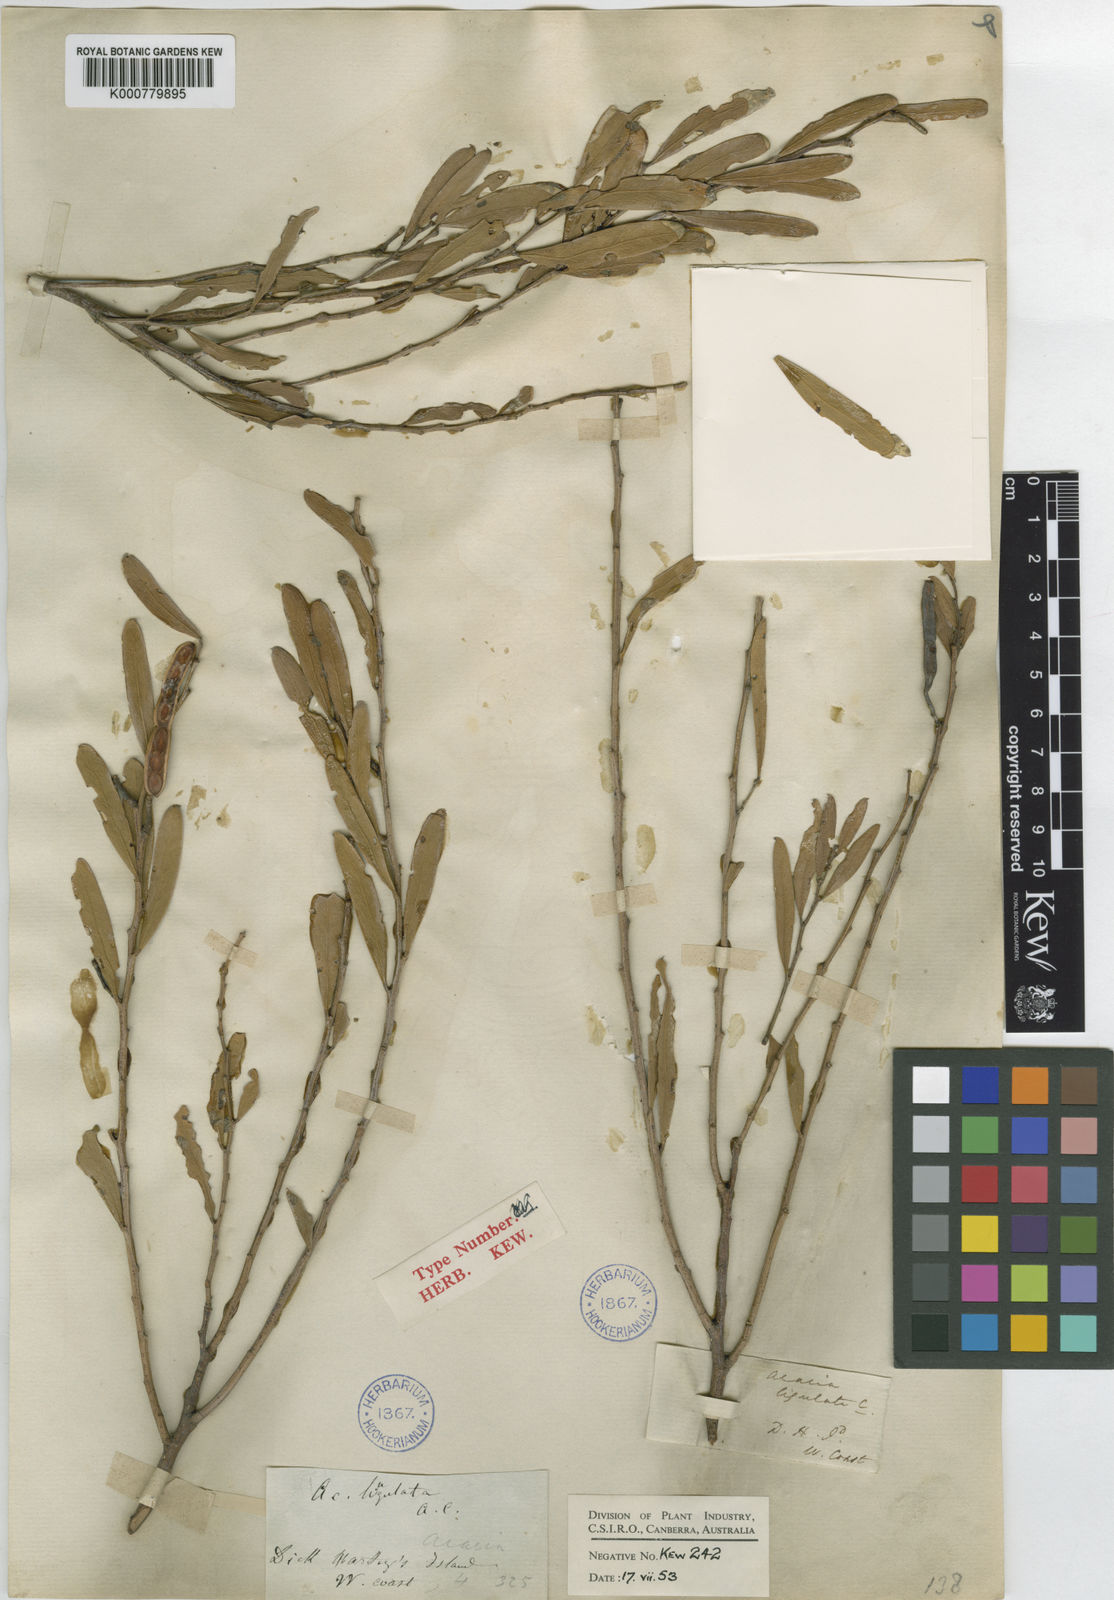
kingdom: Plantae
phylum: Tracheophyta
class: Magnoliopsida
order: Fabales
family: Fabaceae
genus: Acacia
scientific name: Acacia ligulata
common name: Dune wattle
